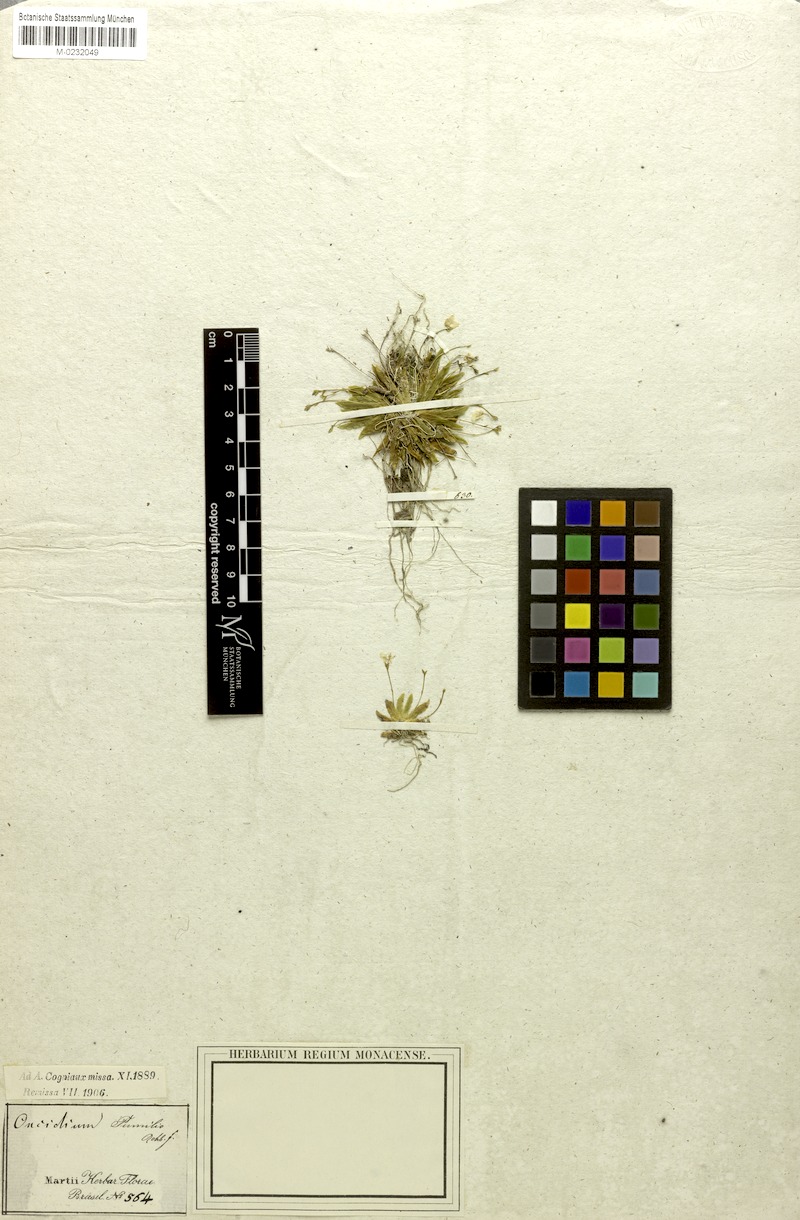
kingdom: Plantae
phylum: Tracheophyta
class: Liliopsida
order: Asparagales
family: Orchidaceae
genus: Erycina
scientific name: Erycina pumilio
